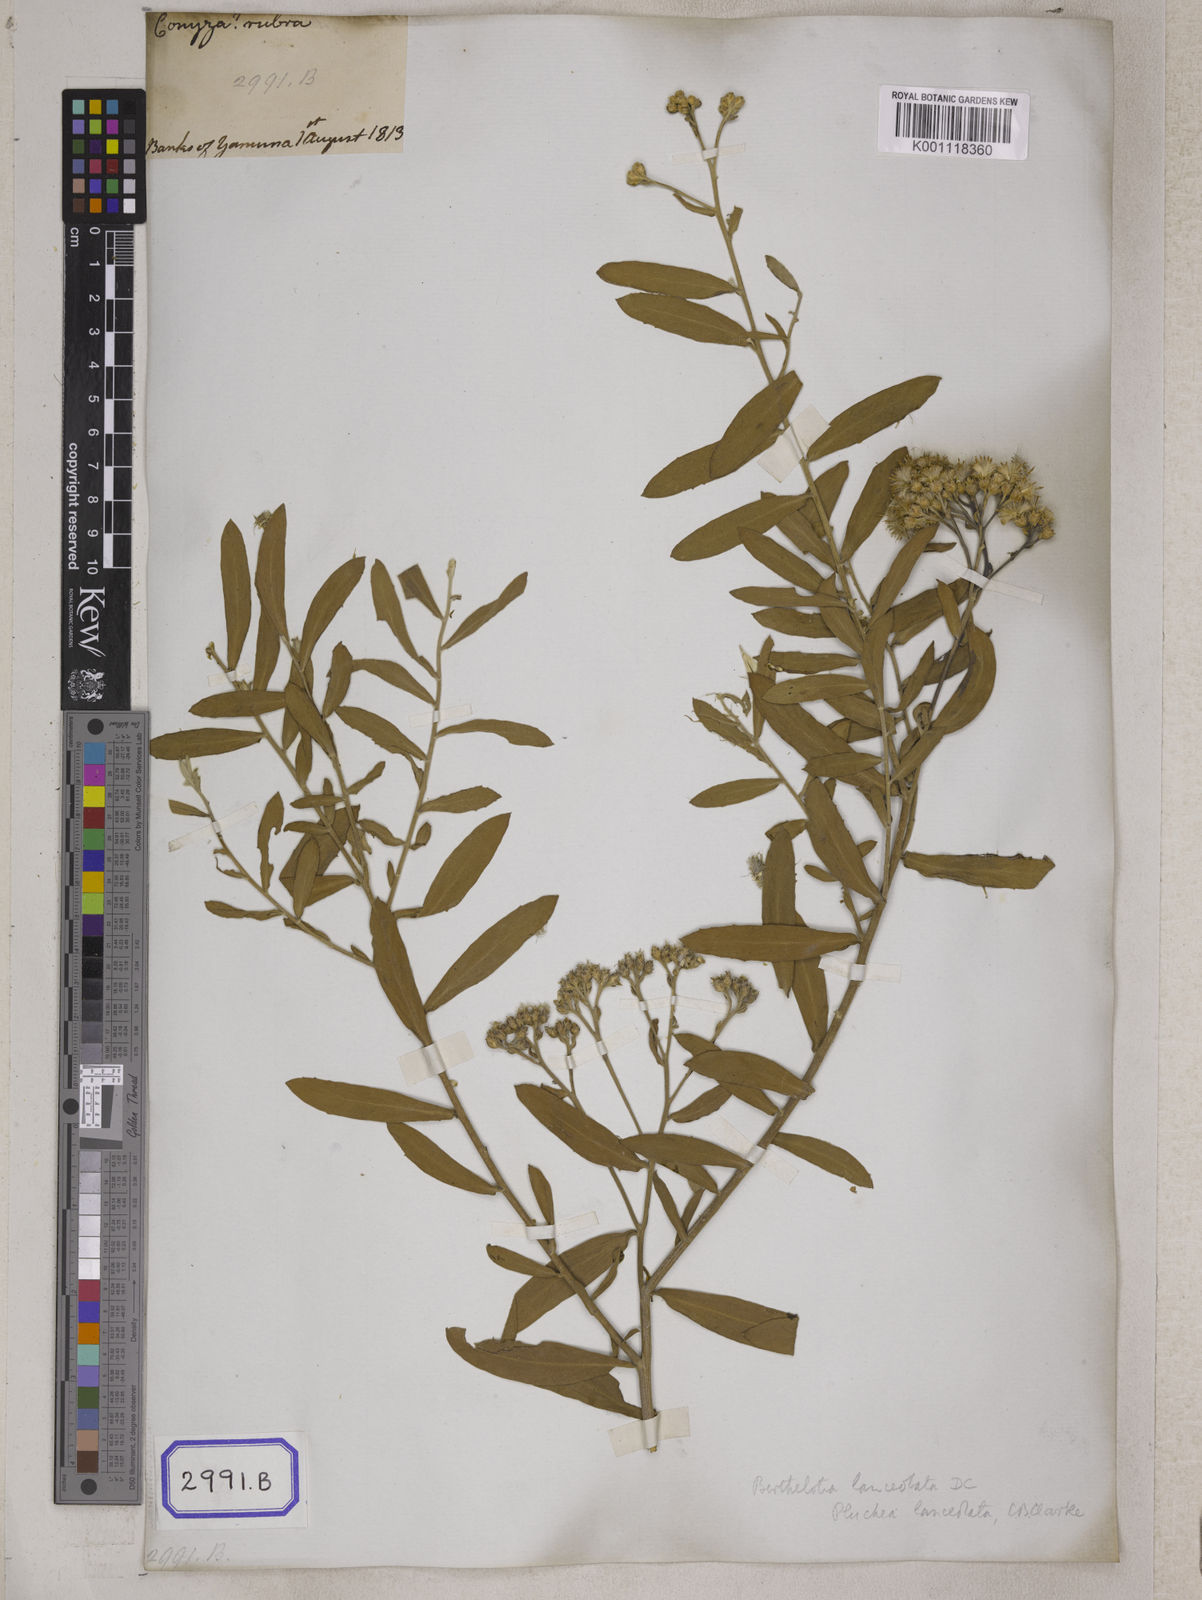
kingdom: Plantae
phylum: Tracheophyta
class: Magnoliopsida
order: Asterales
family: Asteraceae
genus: Acilepis
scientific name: Acilepis divergens
